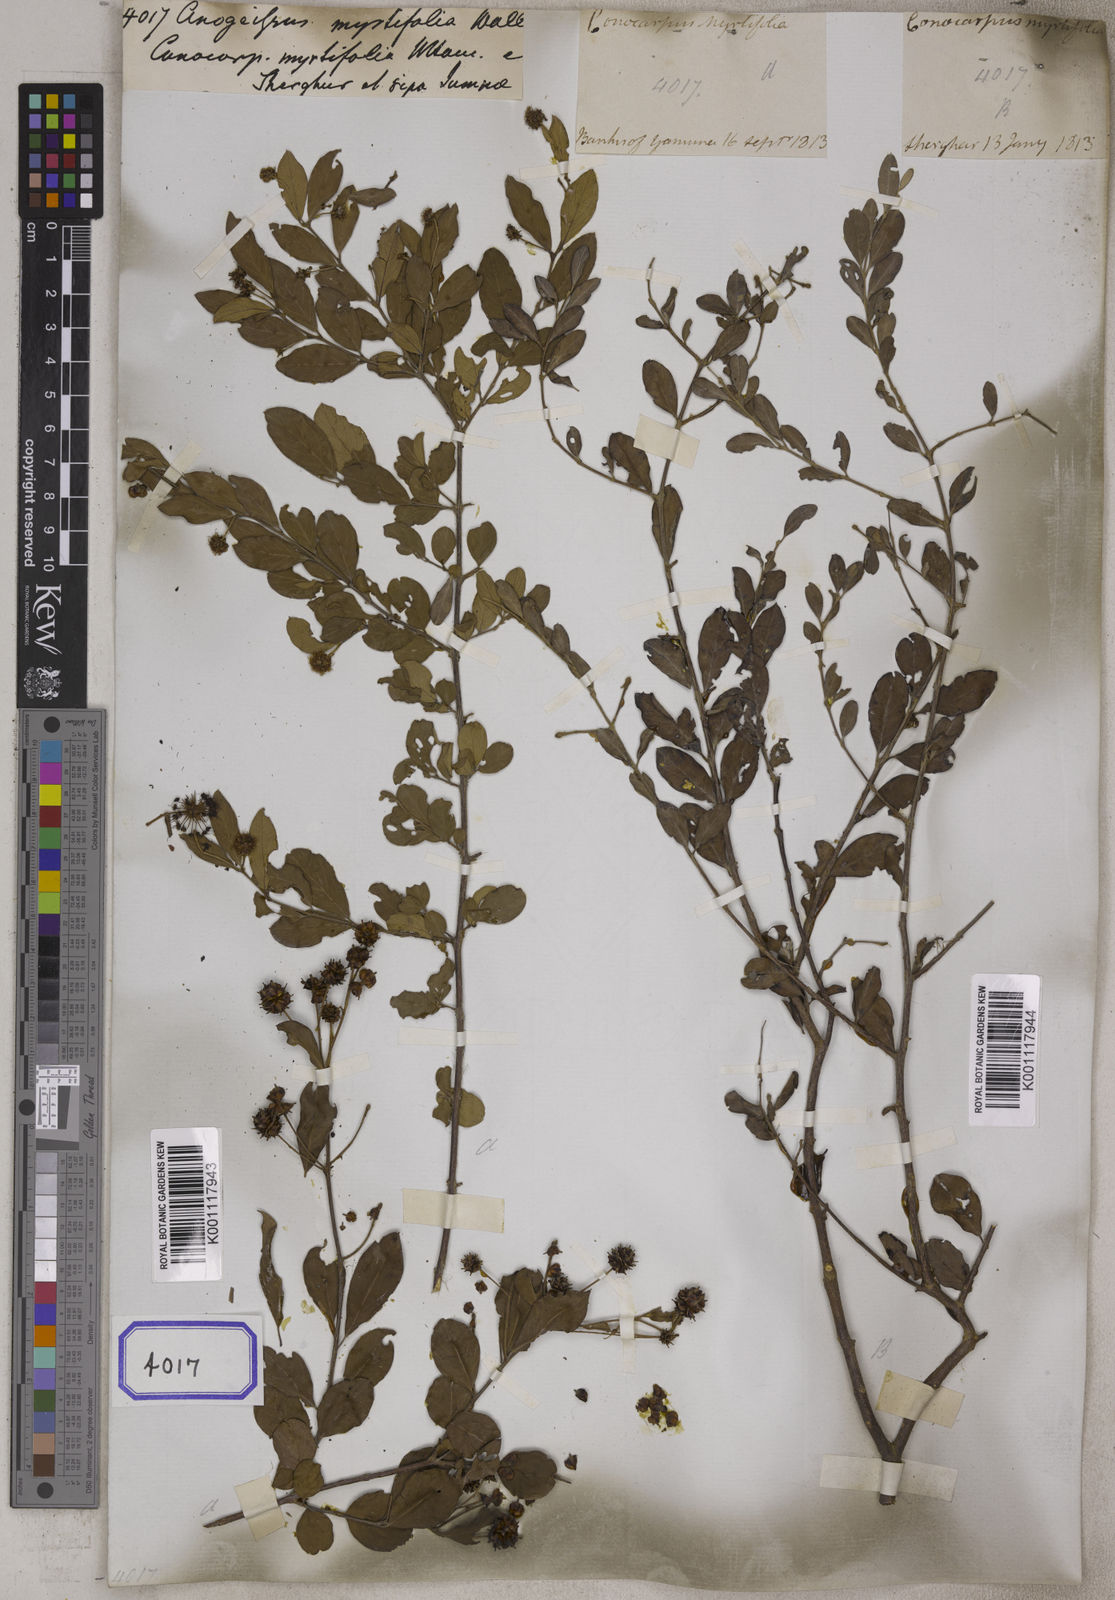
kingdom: Plantae
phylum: Tracheophyta
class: Magnoliopsida
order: Myrtales
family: Combretaceae
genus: Terminalia
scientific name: Terminalia pendula
